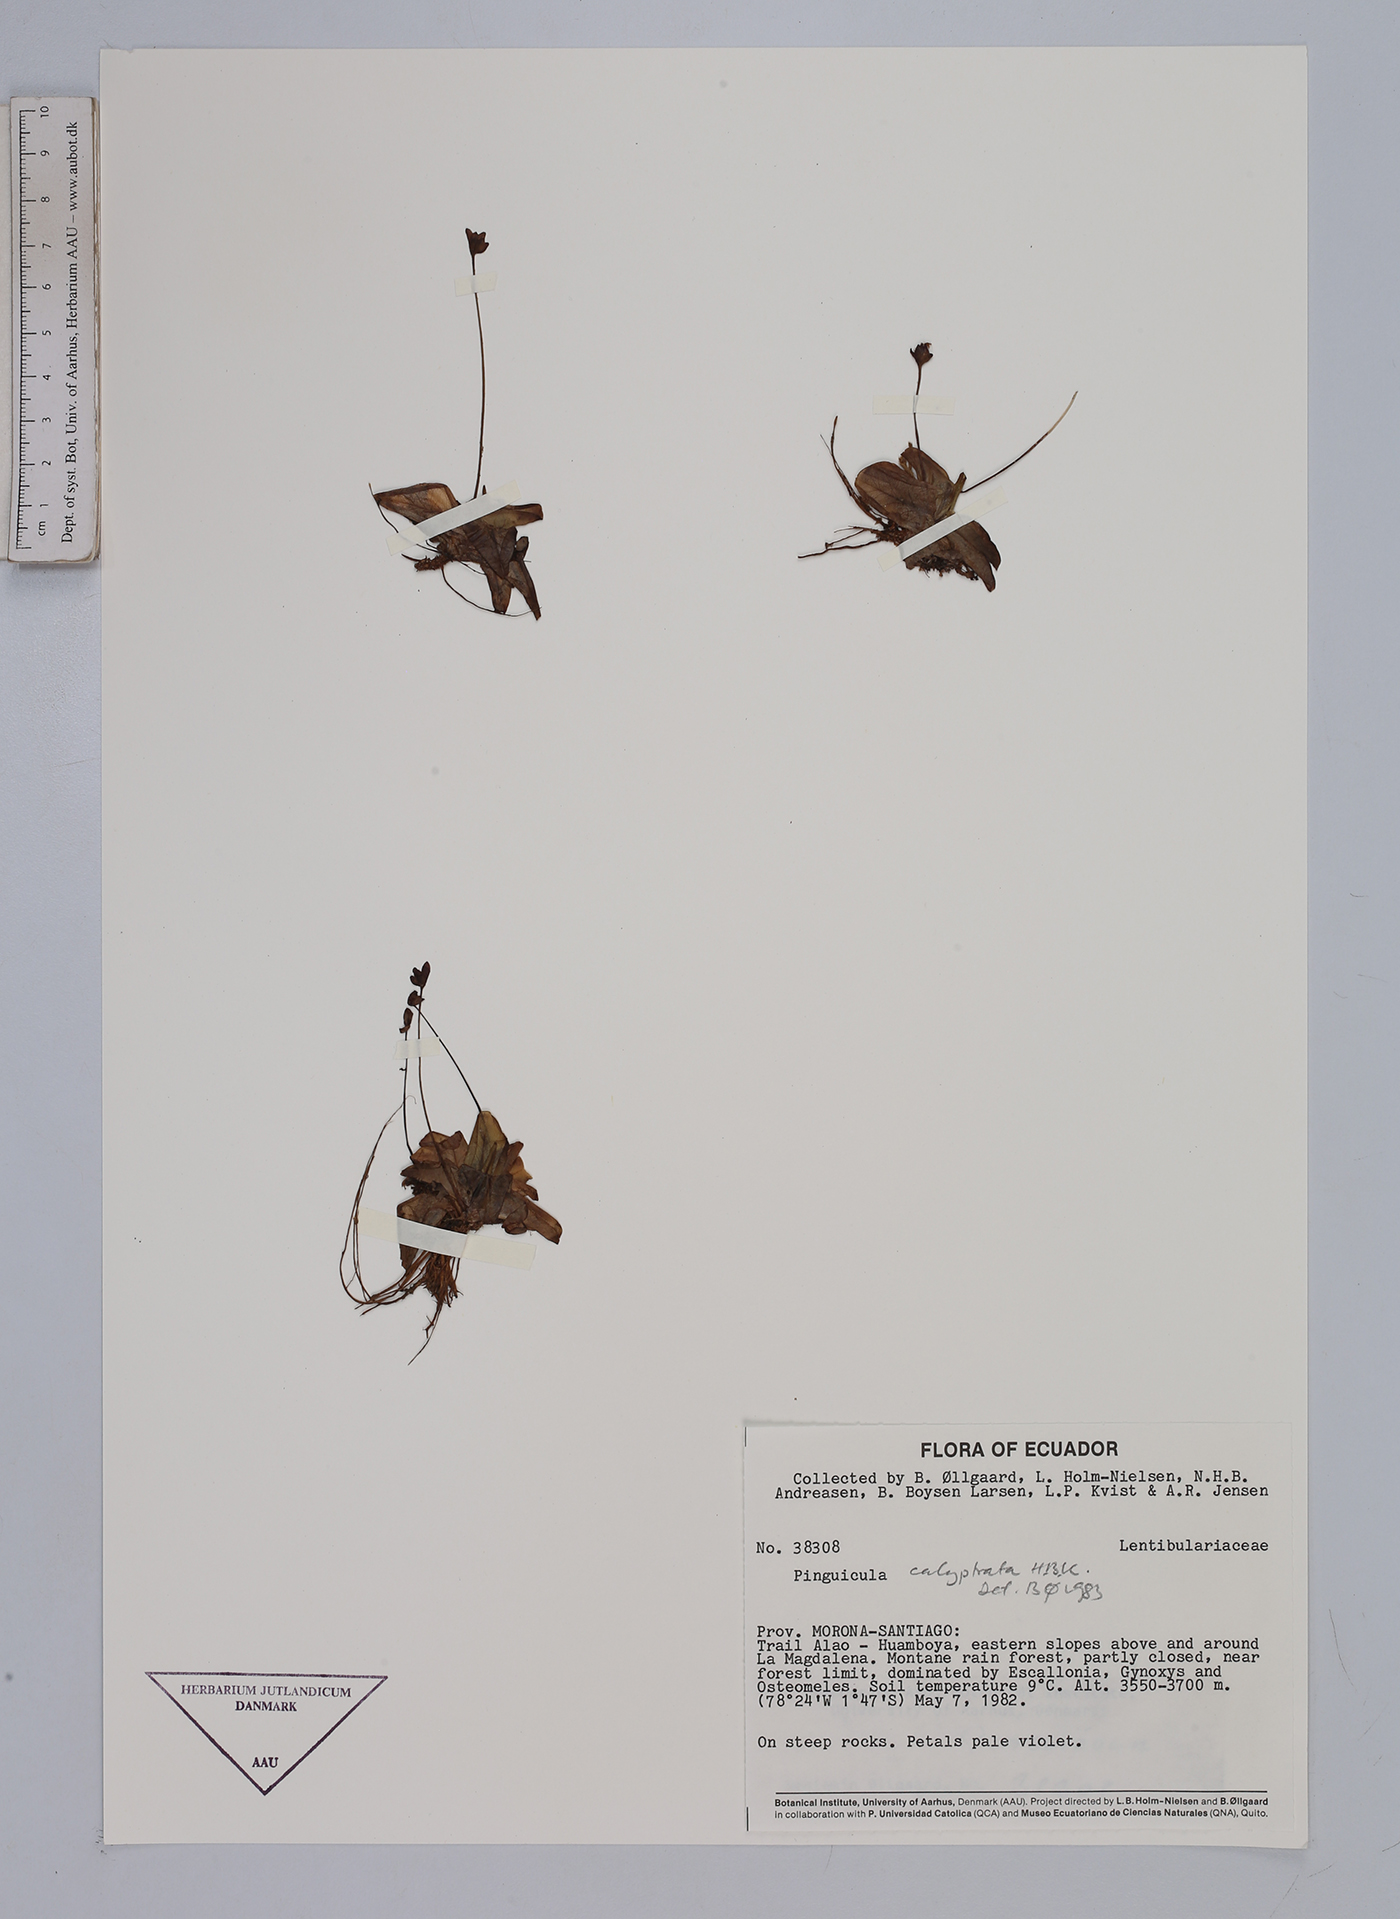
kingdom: Plantae
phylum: Tracheophyta
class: Magnoliopsida
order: Lamiales
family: Lentibulariaceae
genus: Pinguicula
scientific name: Pinguicula calyptrata
